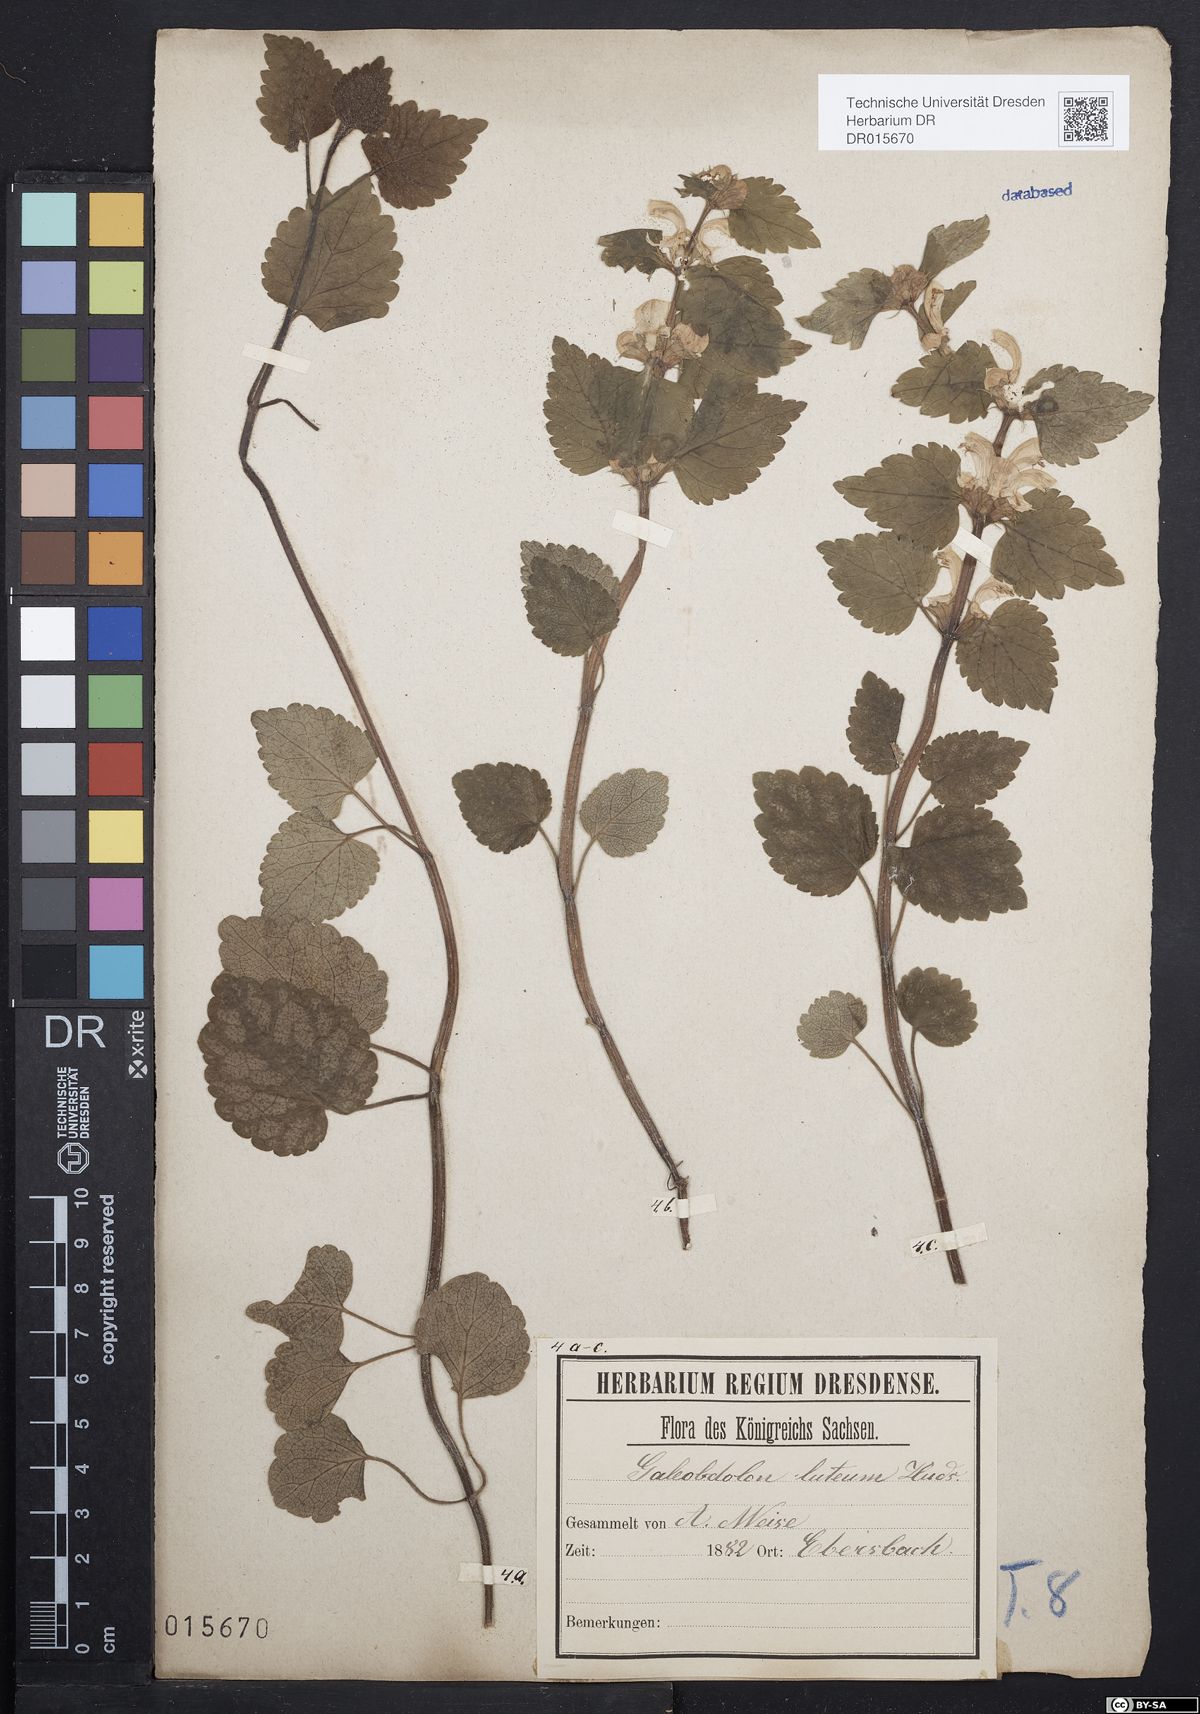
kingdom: Plantae
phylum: Tracheophyta
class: Magnoliopsida
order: Lamiales
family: Lamiaceae
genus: Lamium
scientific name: Lamium galeobdolon
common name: Yellow archangel
